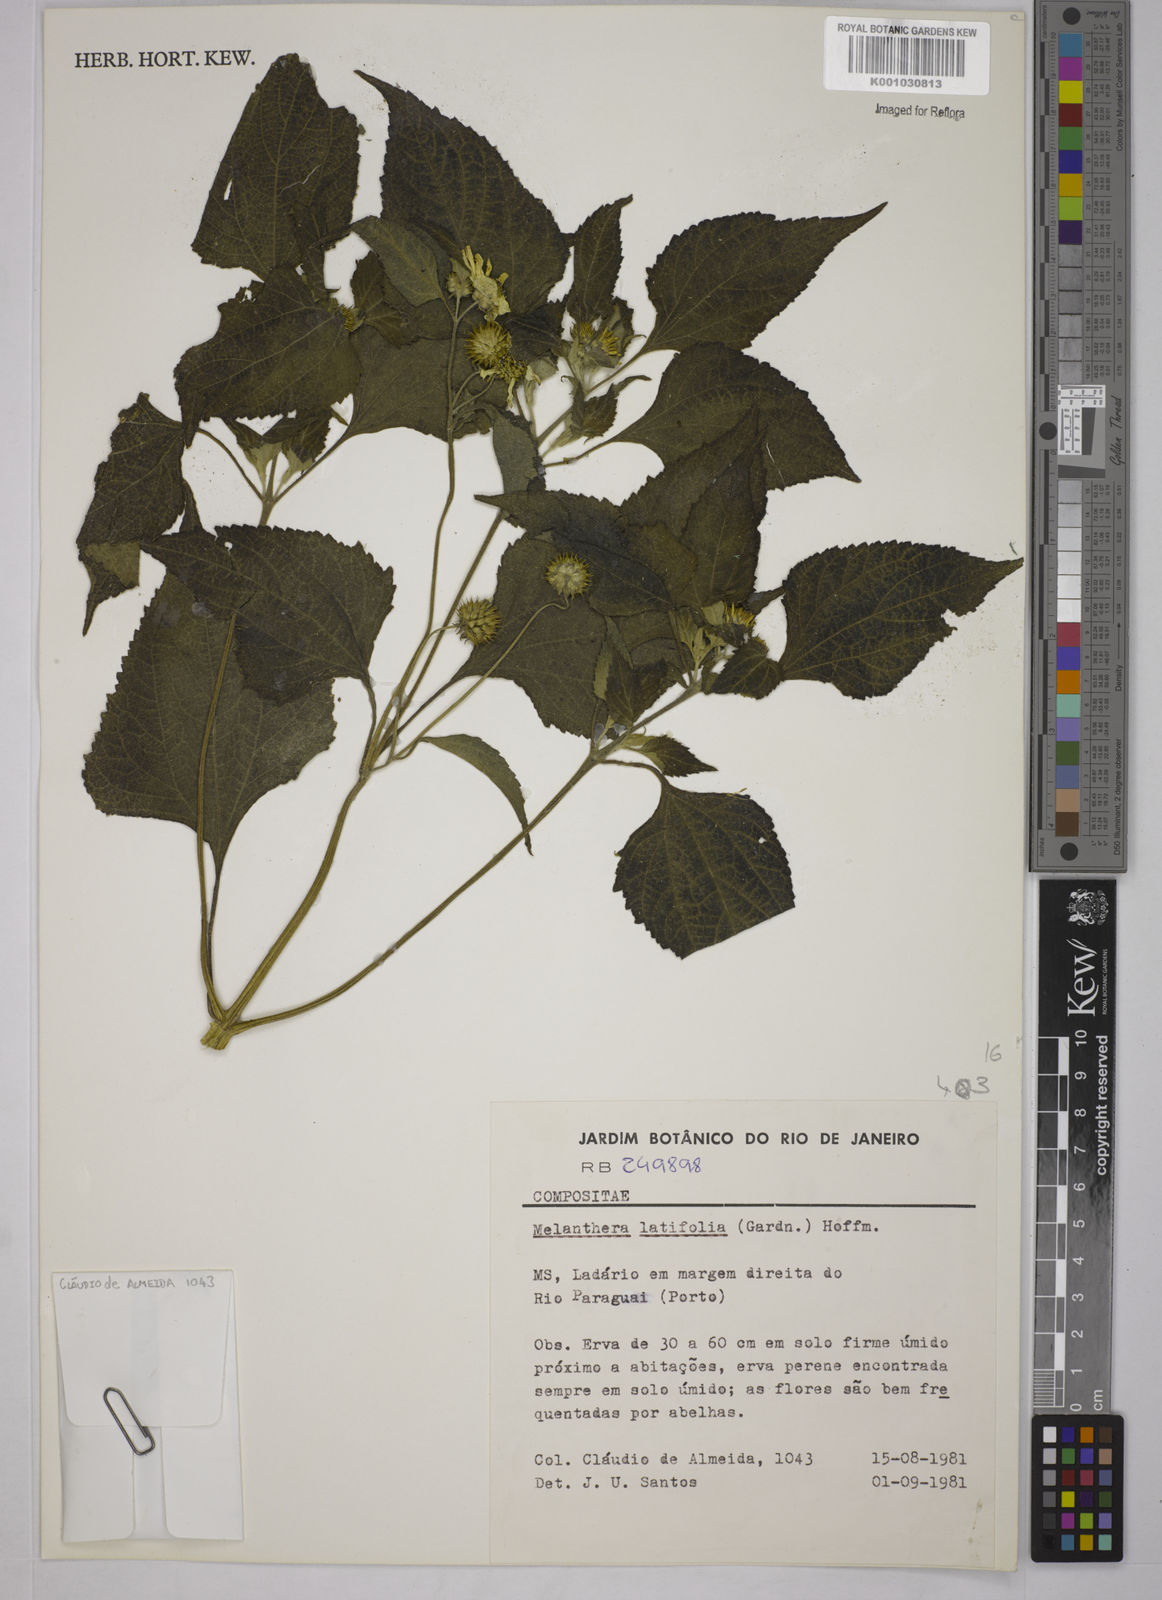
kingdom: Plantae
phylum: Tracheophyta
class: Magnoliopsida
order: Asterales
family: Asteraceae
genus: Echinocephalum
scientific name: Echinocephalum latifolium
